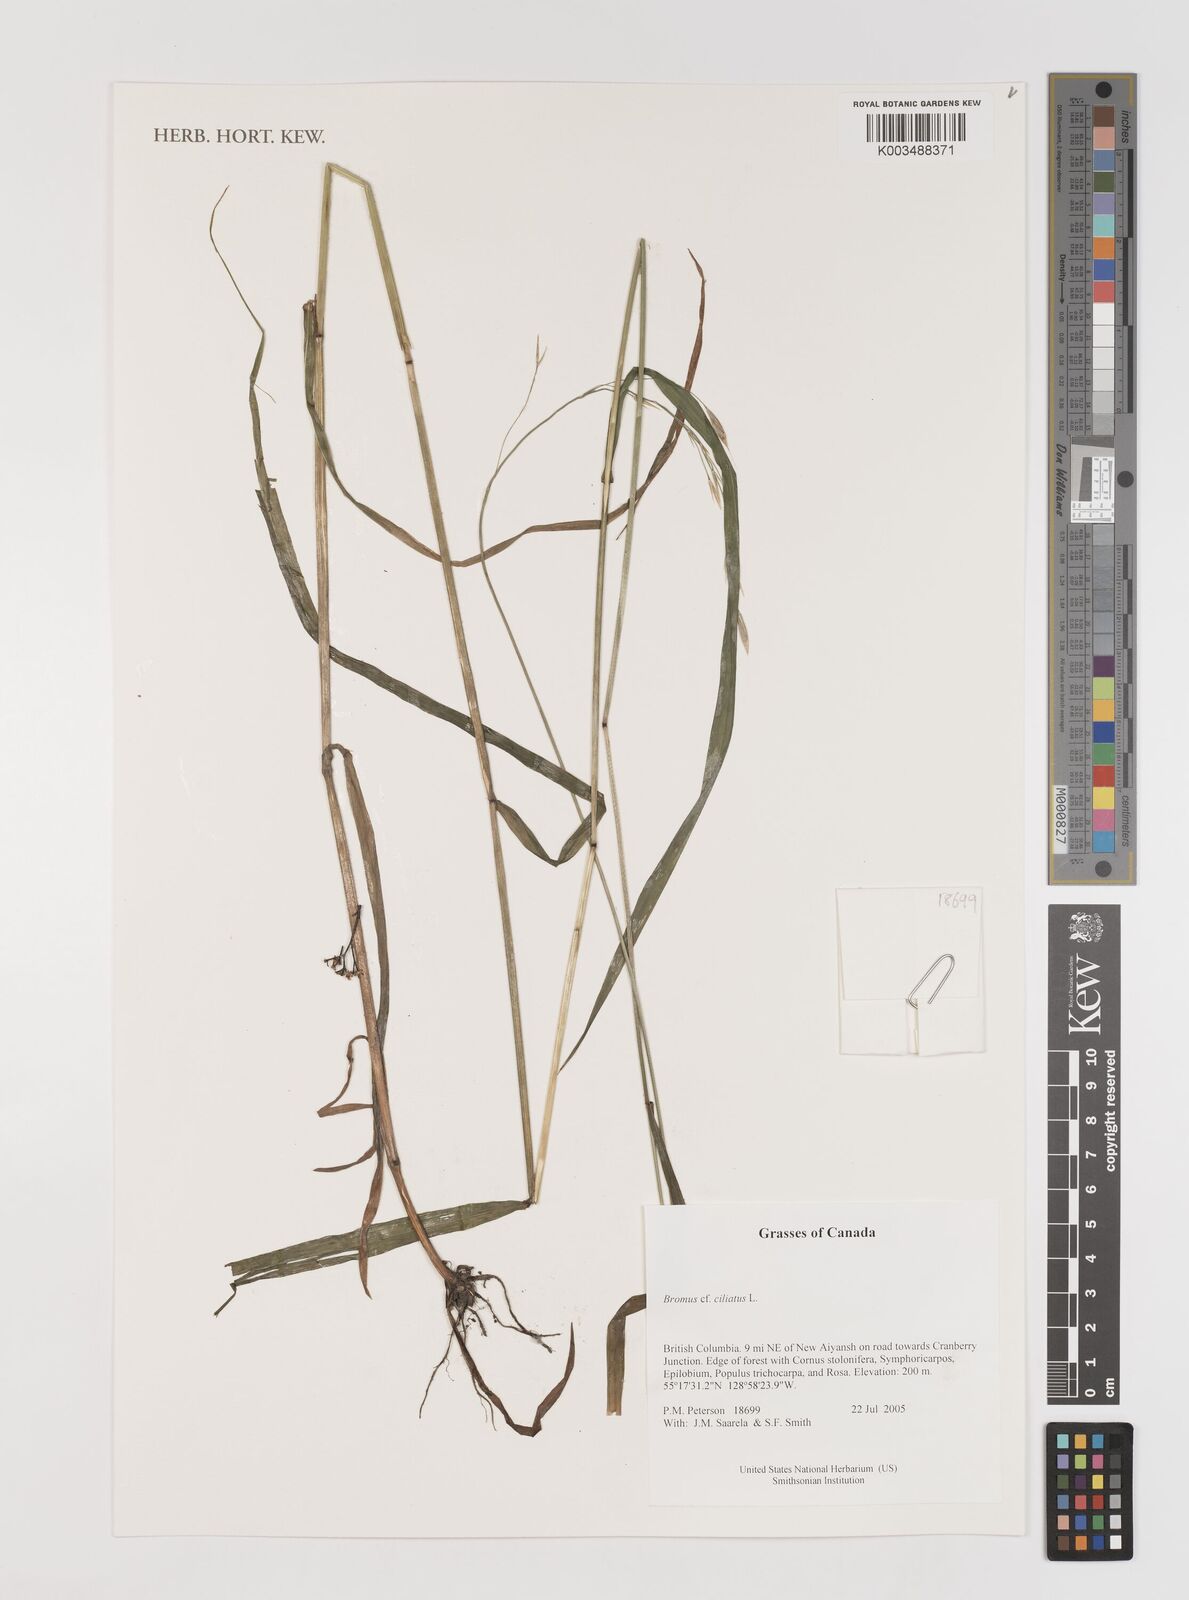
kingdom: Plantae
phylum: Tracheophyta
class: Liliopsida
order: Poales
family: Poaceae
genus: Bromus
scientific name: Bromus ciliatus
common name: Fringe brome
